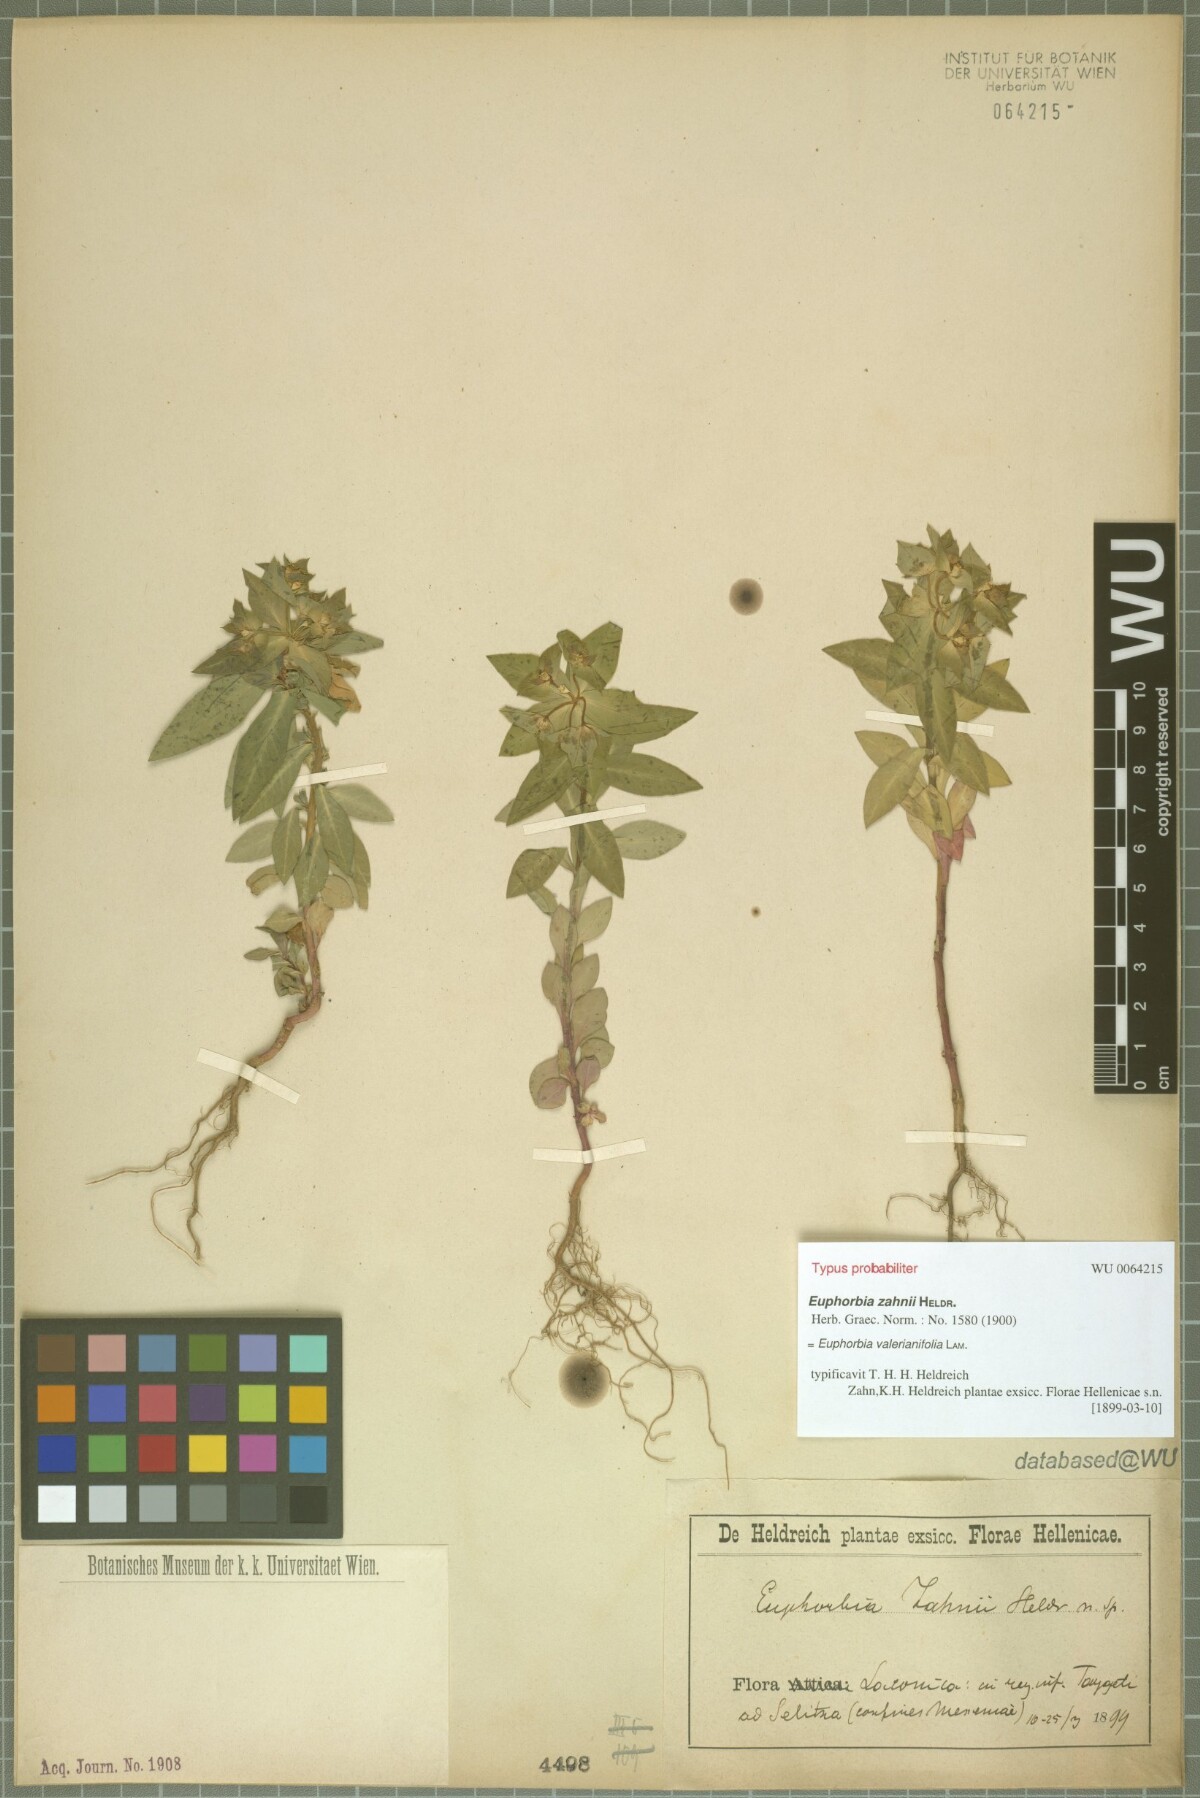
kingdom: Plantae
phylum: Tracheophyta
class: Magnoliopsida
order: Malpighiales
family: Euphorbiaceae
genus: Euphorbia
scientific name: Euphorbia valerianifolia
